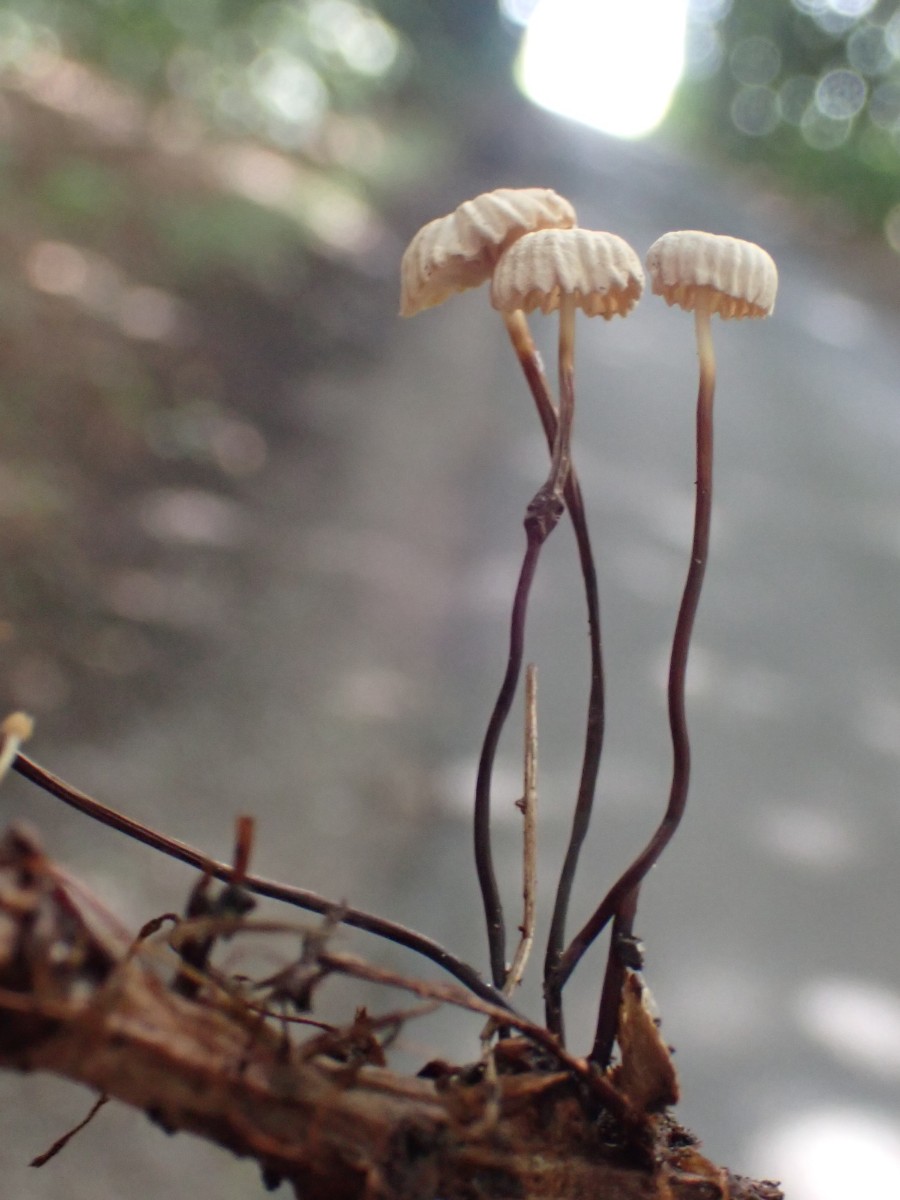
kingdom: Fungi
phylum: Basidiomycota
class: Agaricomycetes
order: Agaricales
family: Marasmiaceae
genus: Marasmius
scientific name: Marasmius rotula
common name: hjul-bruskhat
